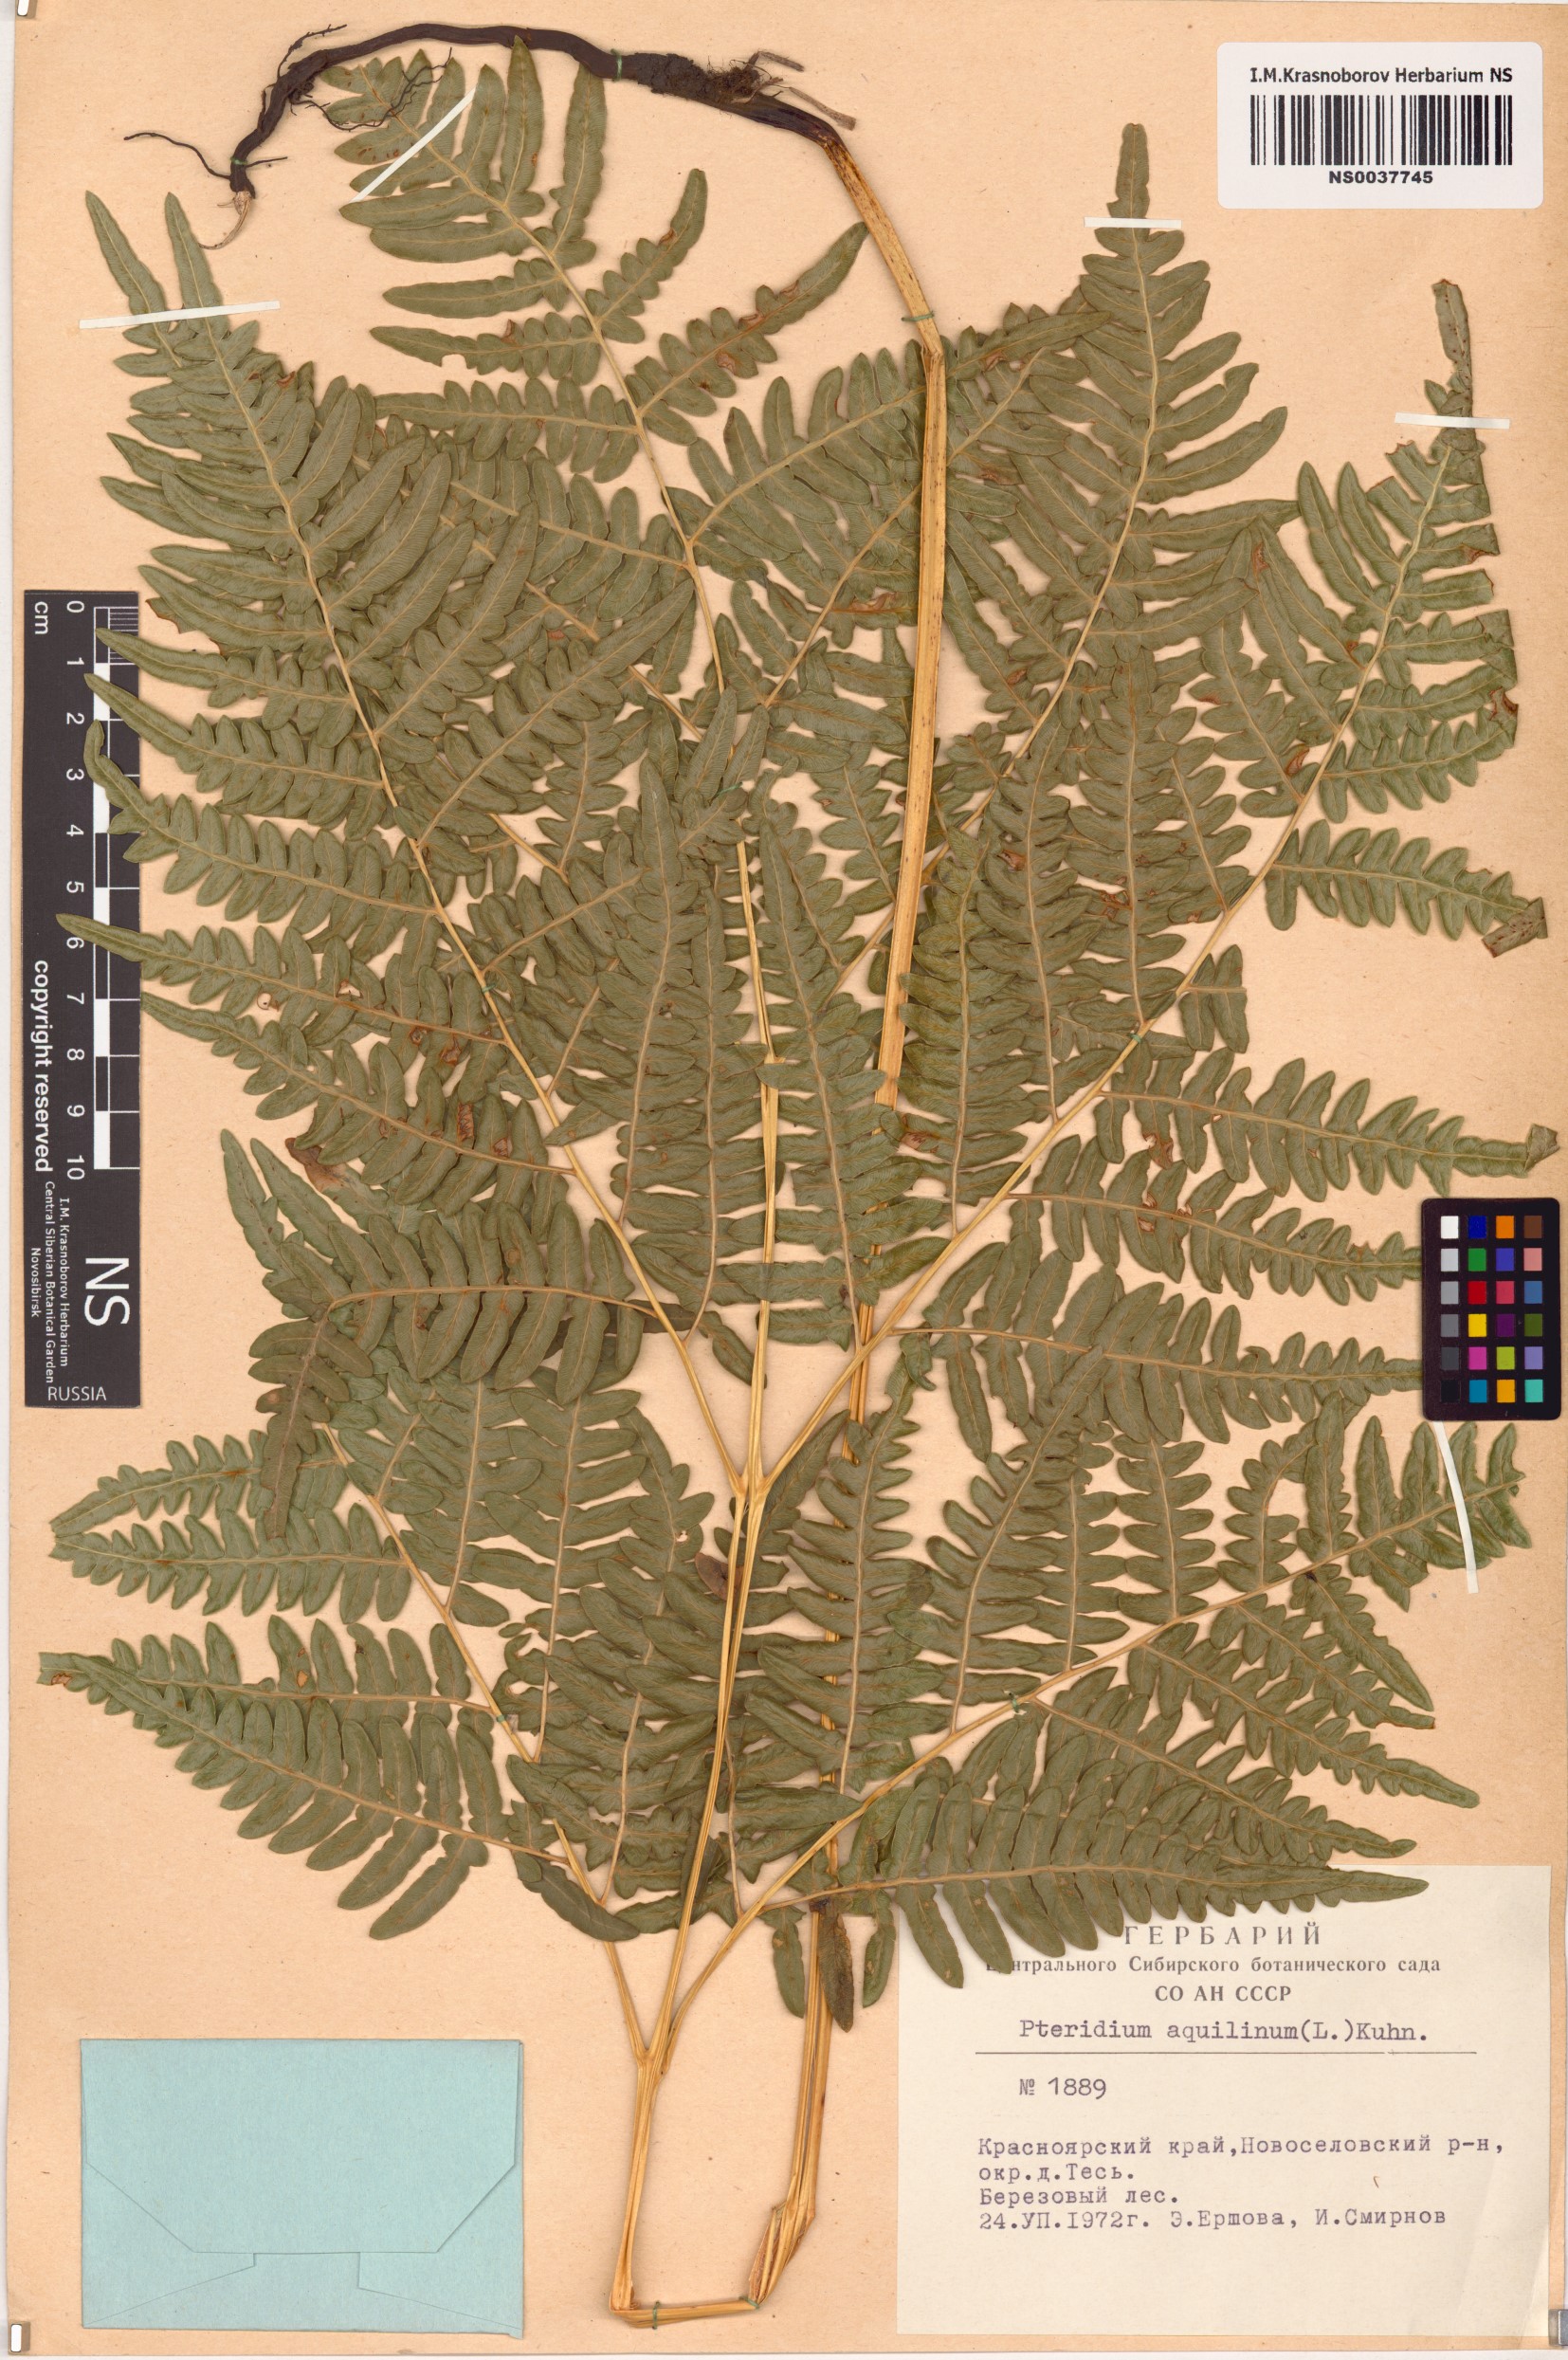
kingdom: Plantae
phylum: Tracheophyta
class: Polypodiopsida
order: Polypodiales
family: Dennstaedtiaceae
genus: Pteridium
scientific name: Pteridium aquilinum
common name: Bracken
